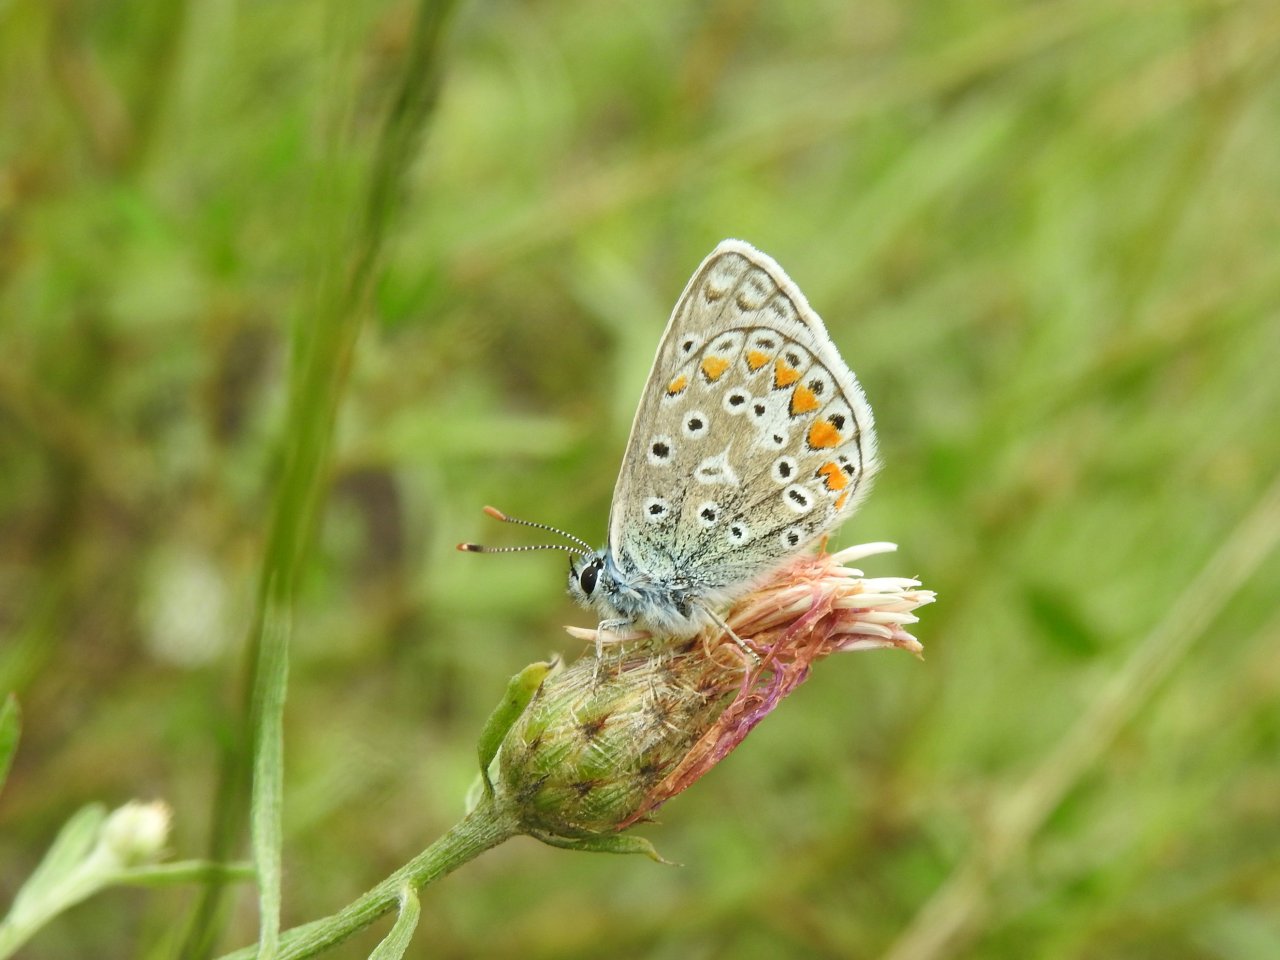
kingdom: Animalia
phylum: Arthropoda
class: Insecta
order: Lepidoptera
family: Lycaenidae
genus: Polyommatus
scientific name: Polyommatus icarus
